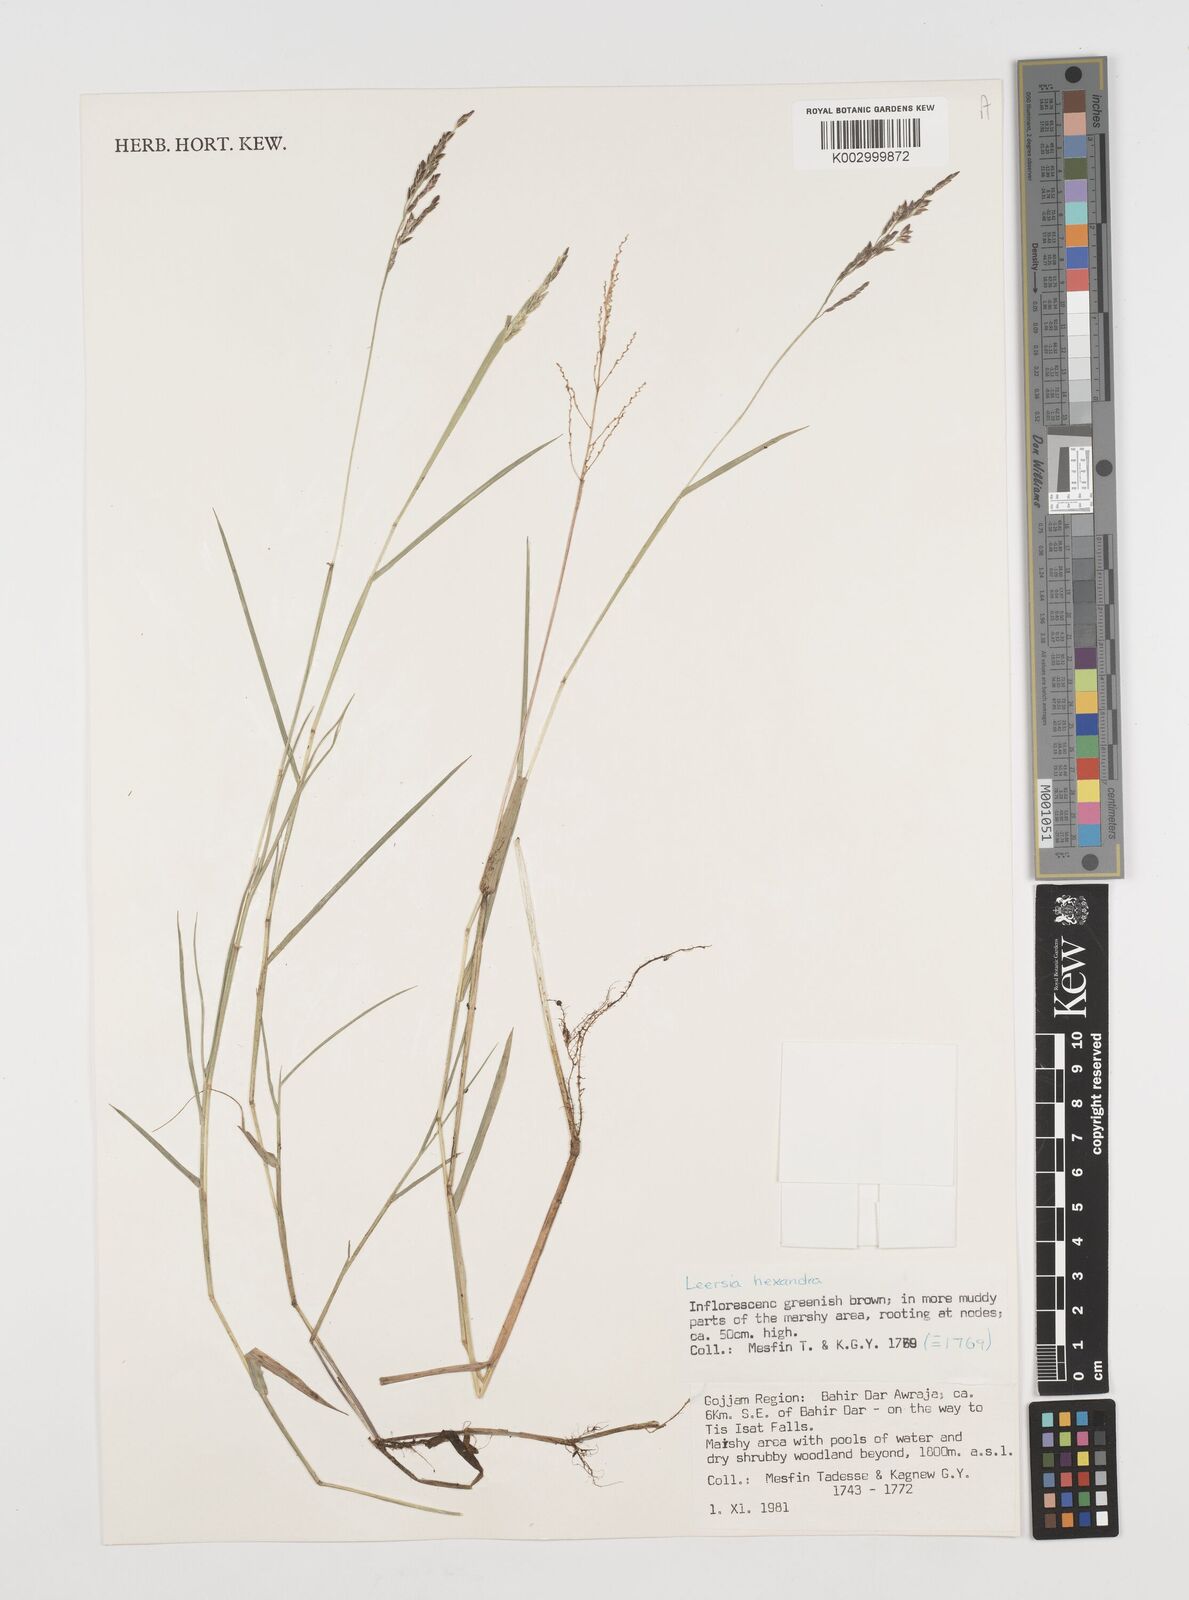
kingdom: Plantae
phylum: Tracheophyta
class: Liliopsida
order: Poales
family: Poaceae
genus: Leersia
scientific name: Leersia hexandra
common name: Southern cut grass
